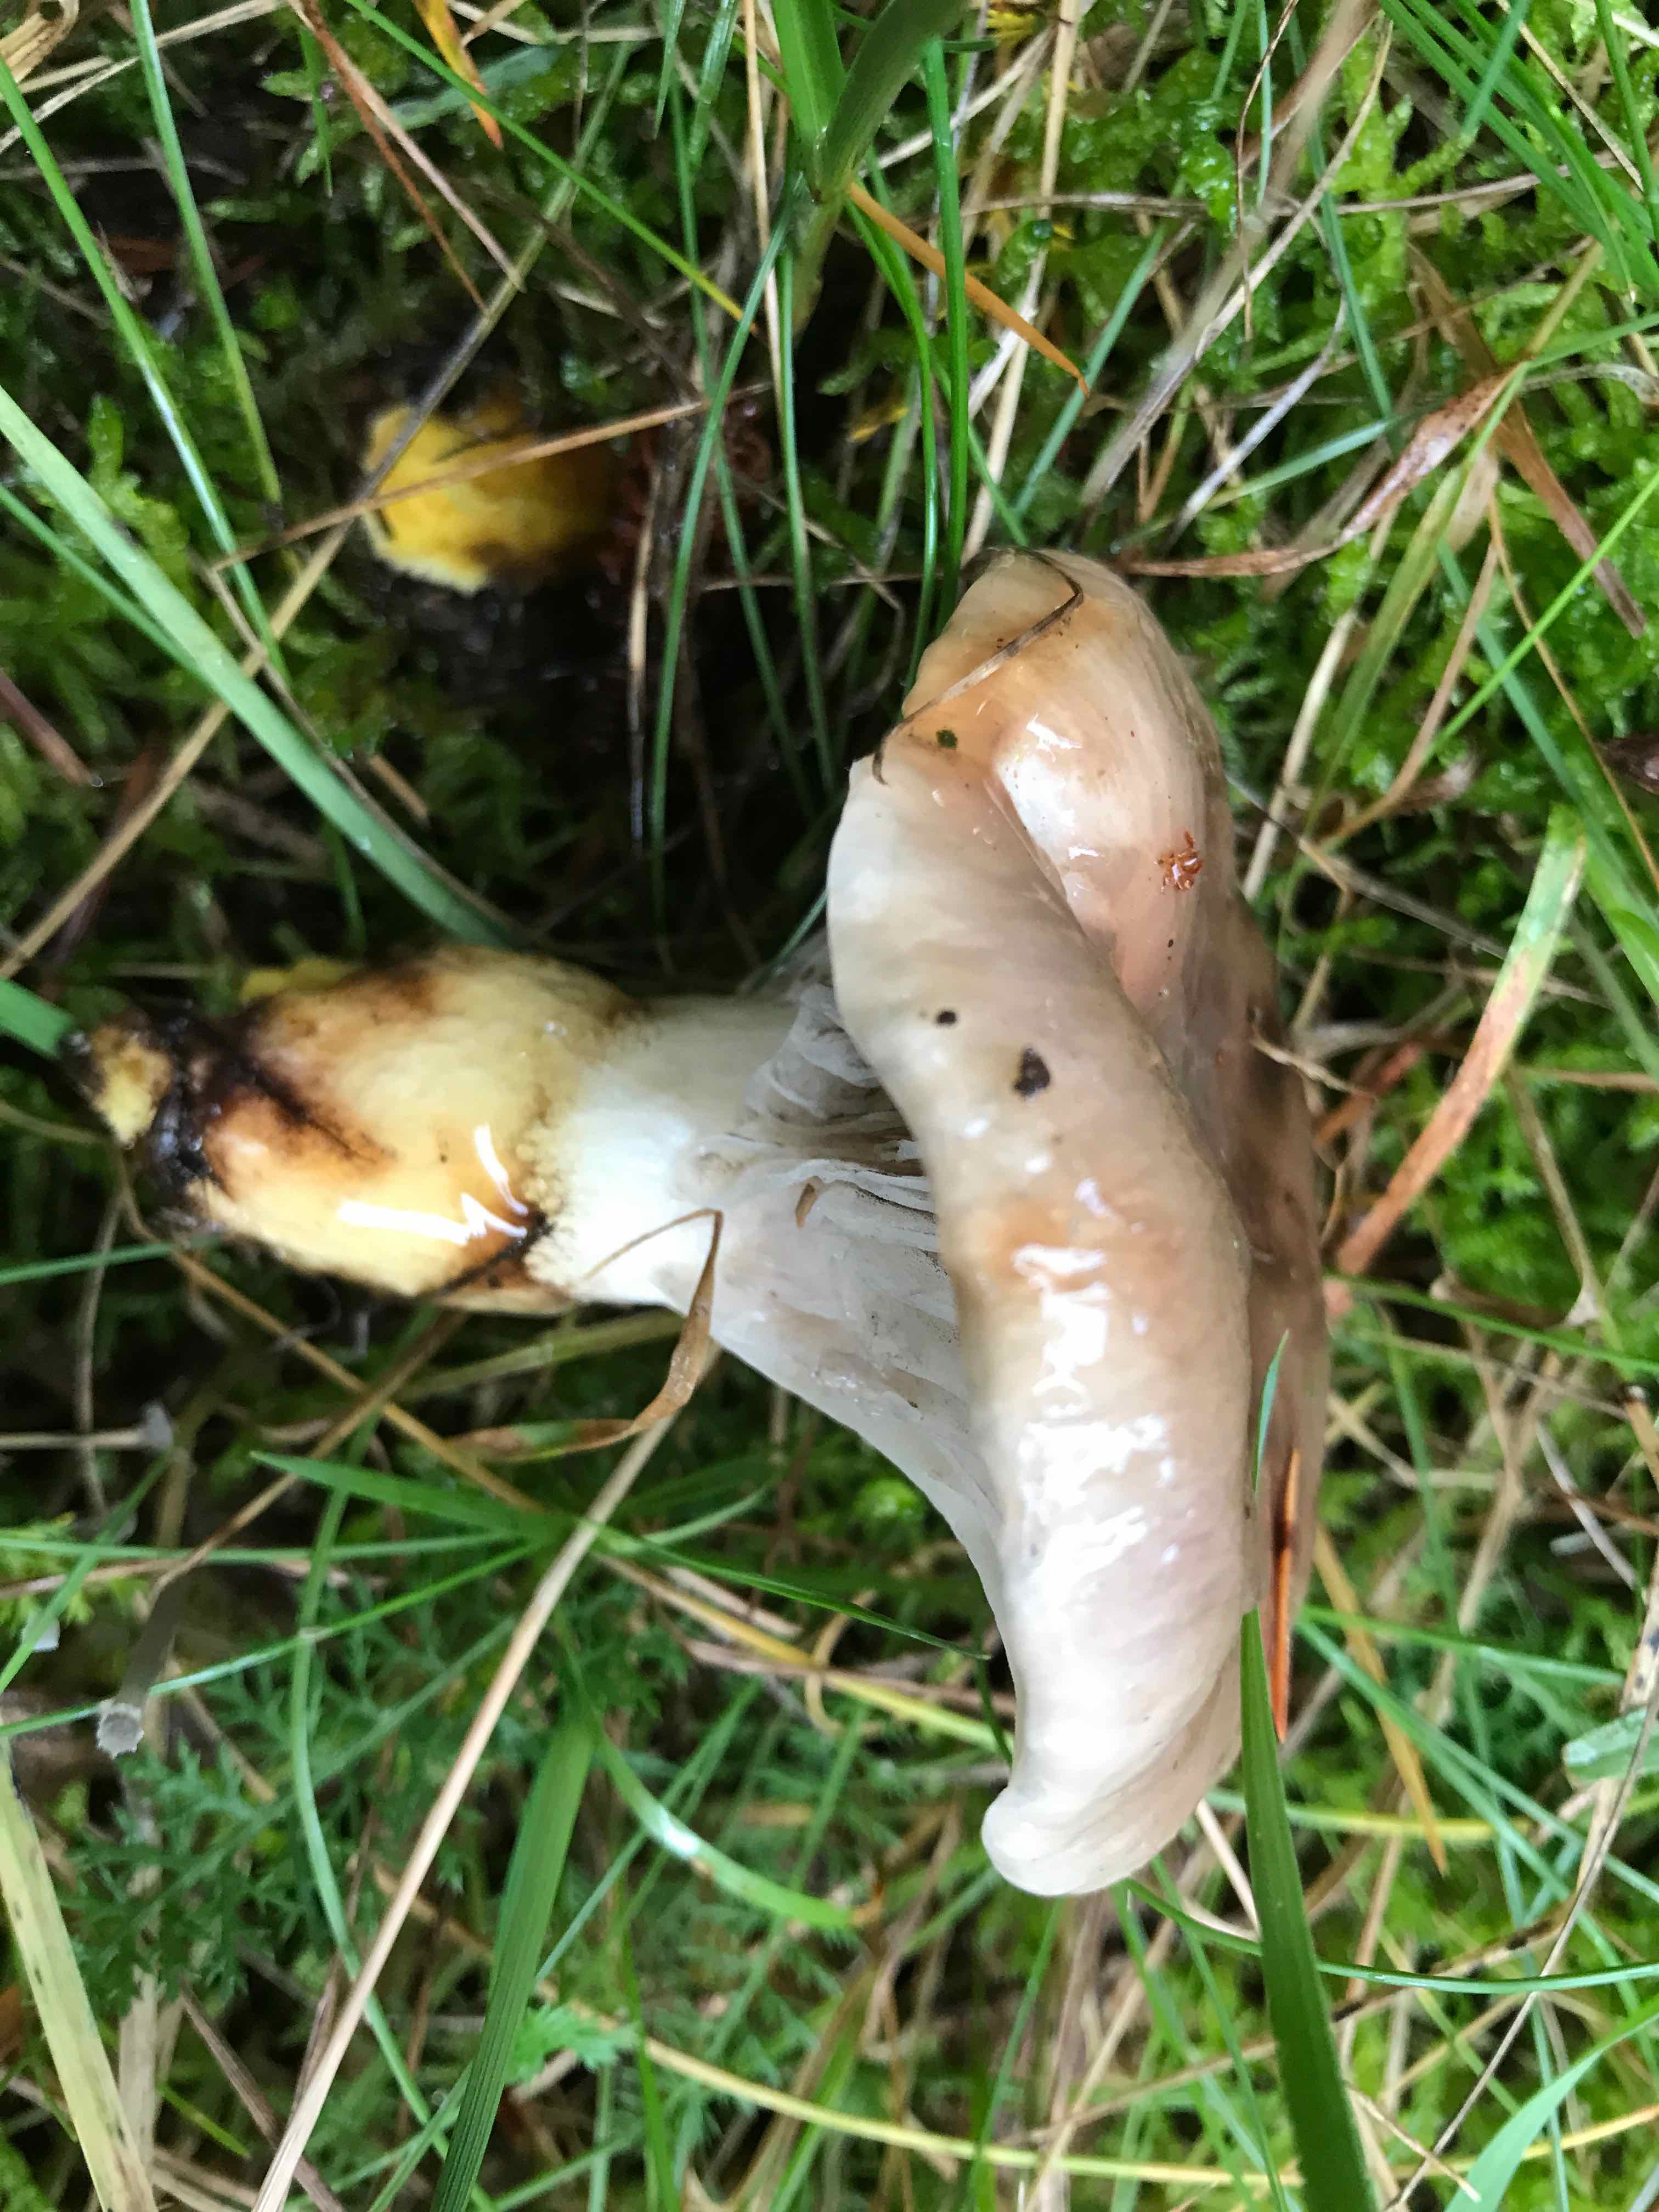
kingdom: Fungi
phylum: Basidiomycota
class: Agaricomycetes
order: Boletales
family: Gomphidiaceae
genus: Gomphidius
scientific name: Gomphidius glutinosus
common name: grå slimslør
